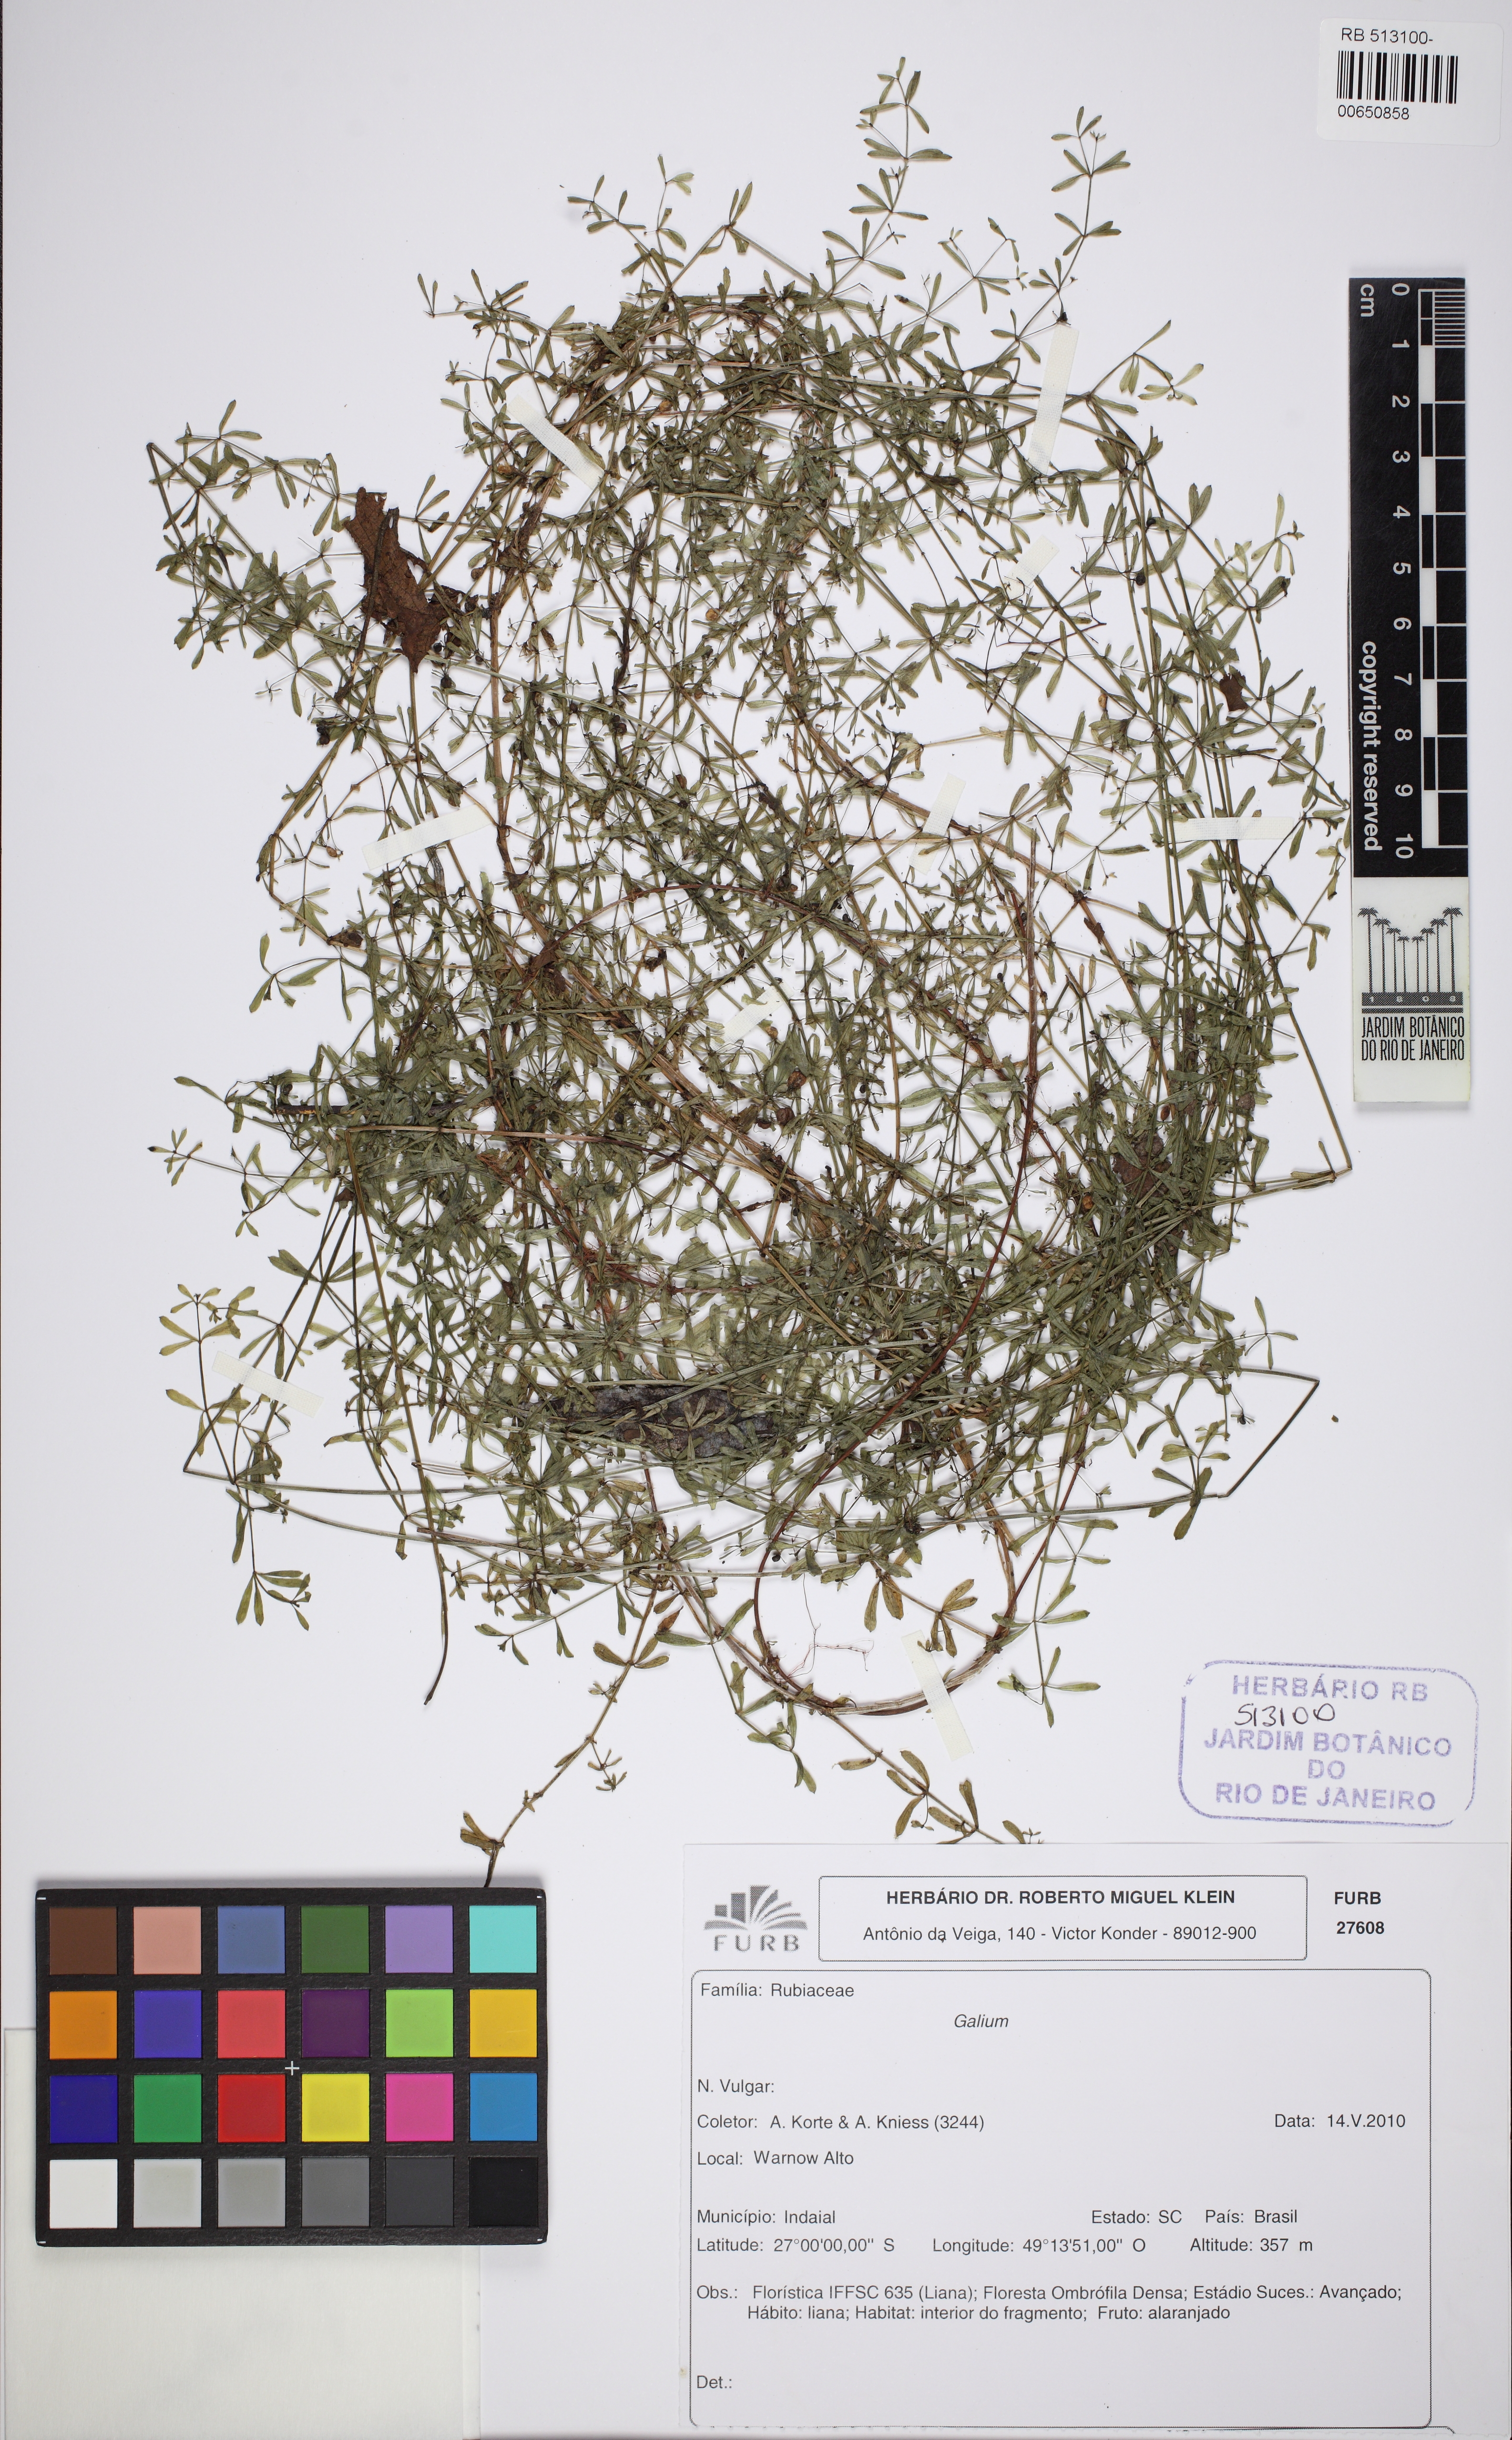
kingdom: Plantae
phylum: Tracheophyta
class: Magnoliopsida
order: Gentianales
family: Rubiaceae
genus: Galium
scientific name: Galium hypocarpium
